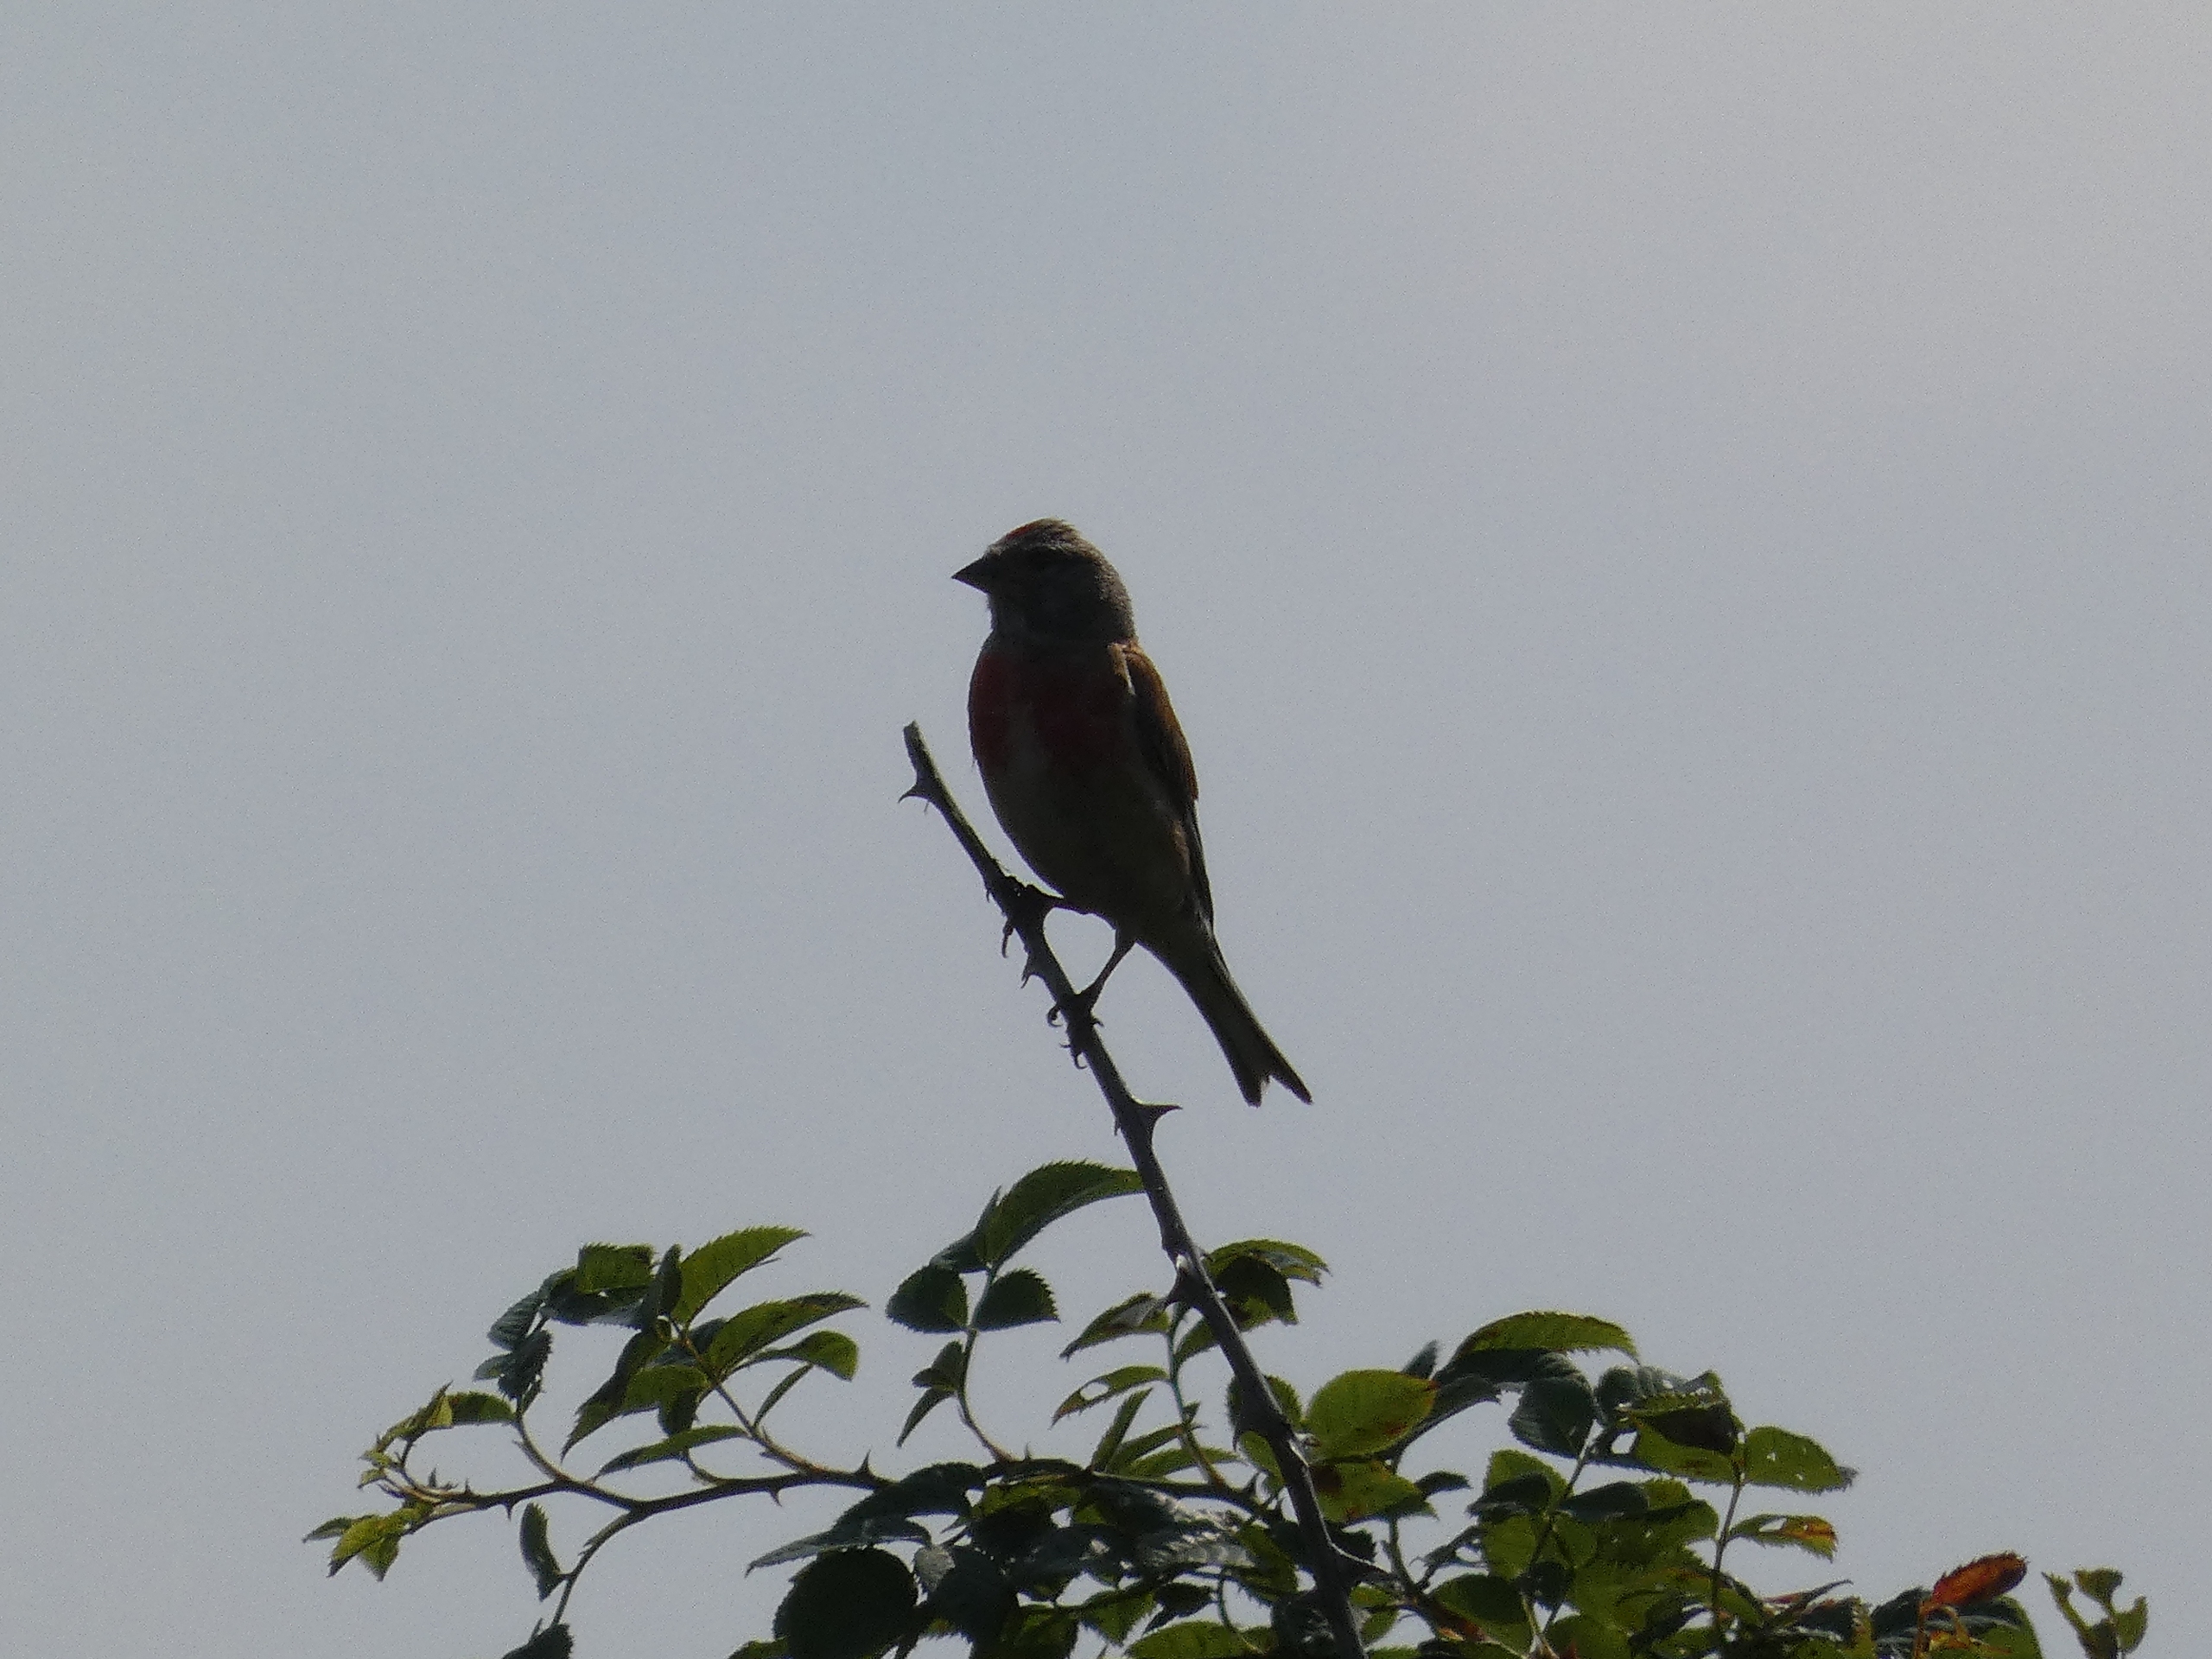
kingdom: Animalia
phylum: Chordata
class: Aves
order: Passeriformes
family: Fringillidae
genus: Linaria
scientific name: Linaria cannabina
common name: Tornirisk
